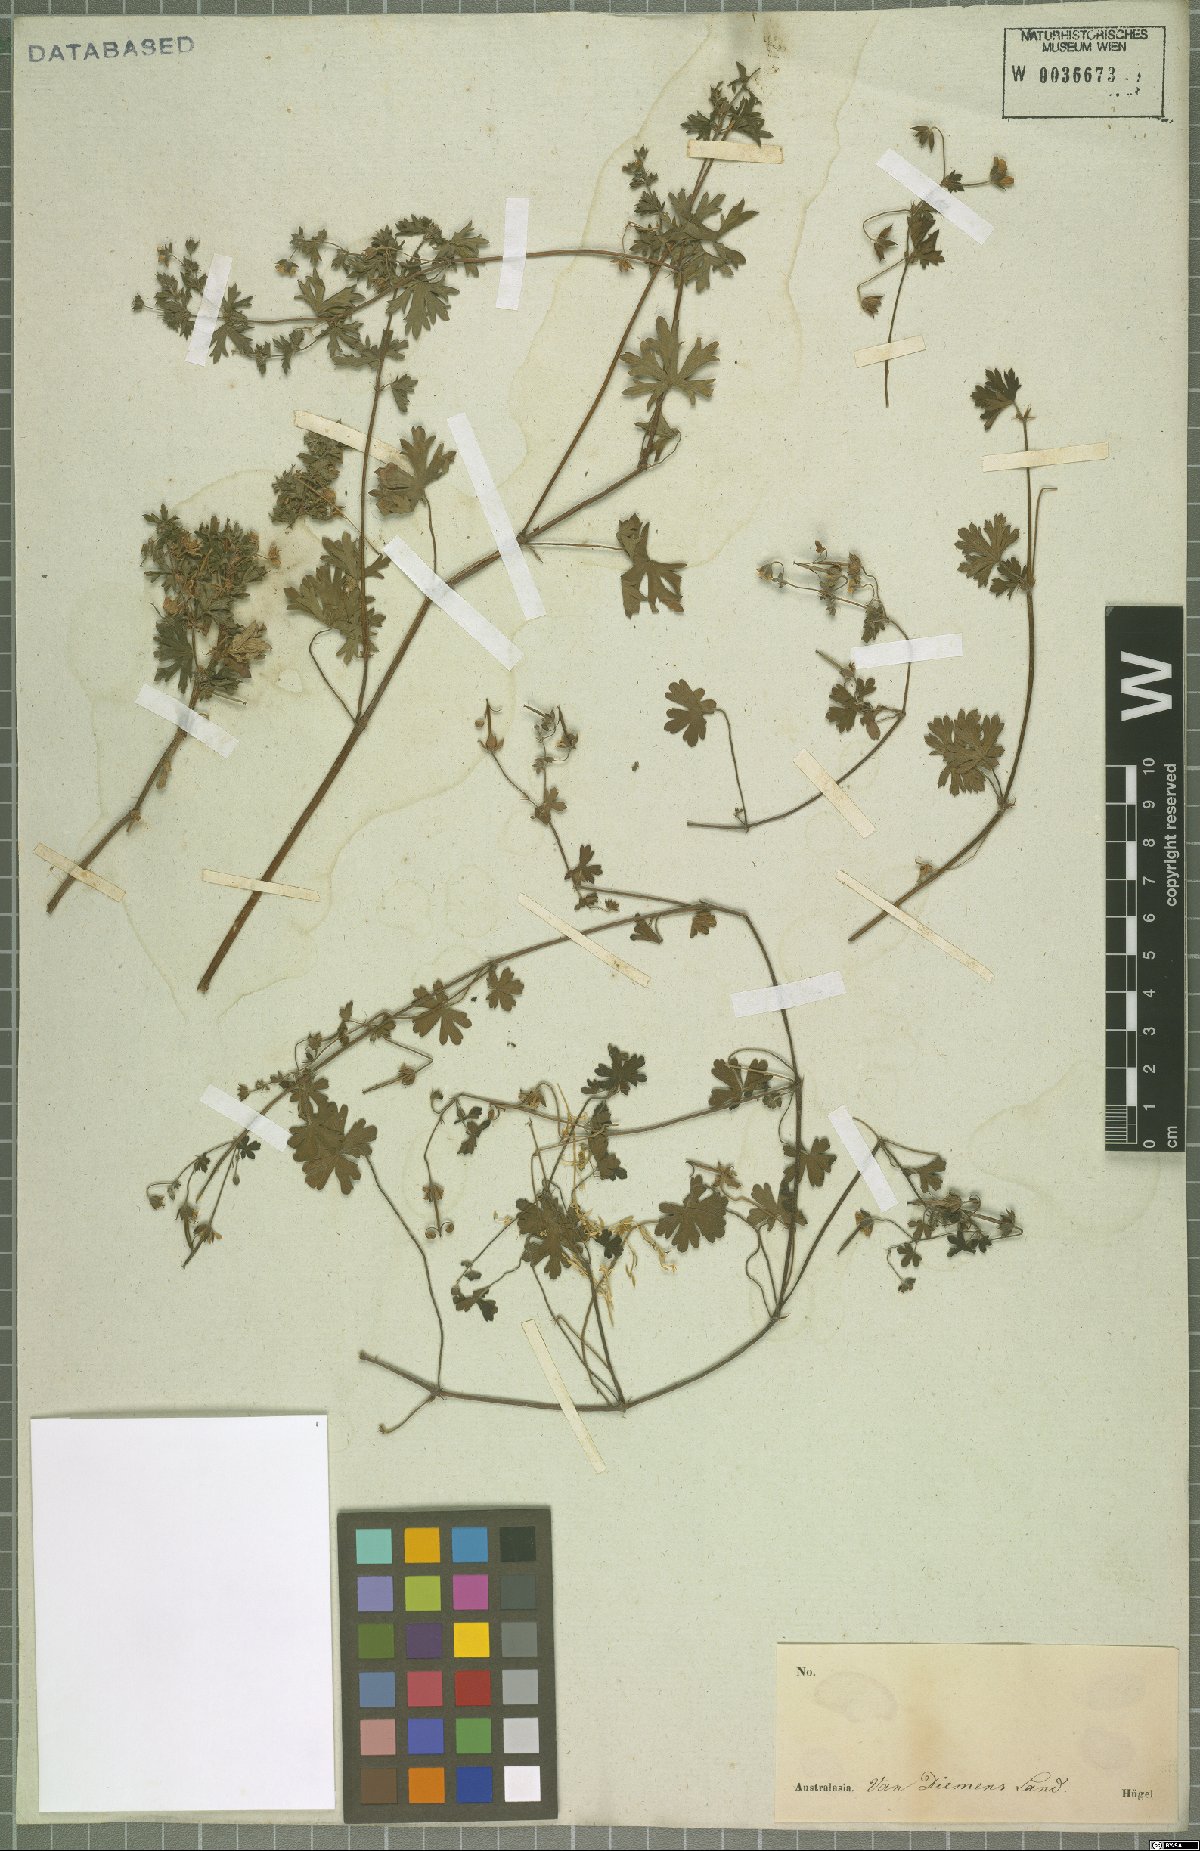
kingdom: Plantae
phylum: Tracheophyta
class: Magnoliopsida
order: Geraniales
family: Geraniaceae
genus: Geranium
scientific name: Geranium potentilloides
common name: Cinquefoil geranium
